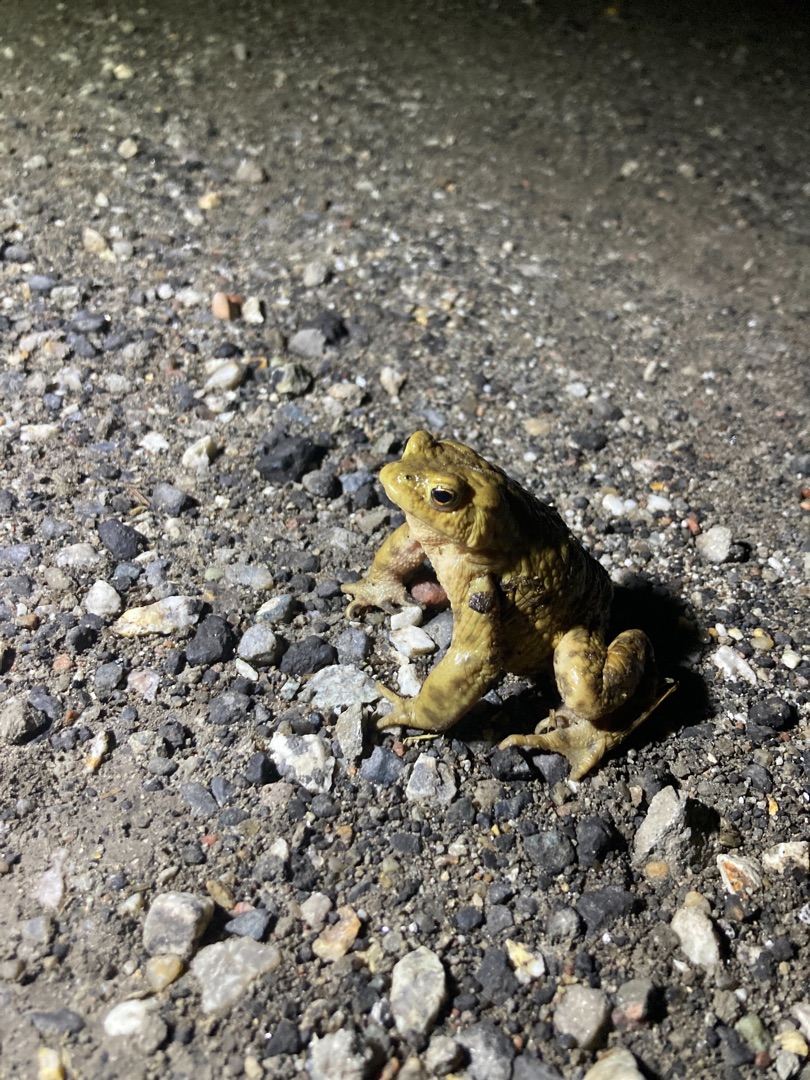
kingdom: Animalia
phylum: Chordata
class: Amphibia
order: Anura
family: Bufonidae
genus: Bufo
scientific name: Bufo bufo
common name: Skrubtudse
